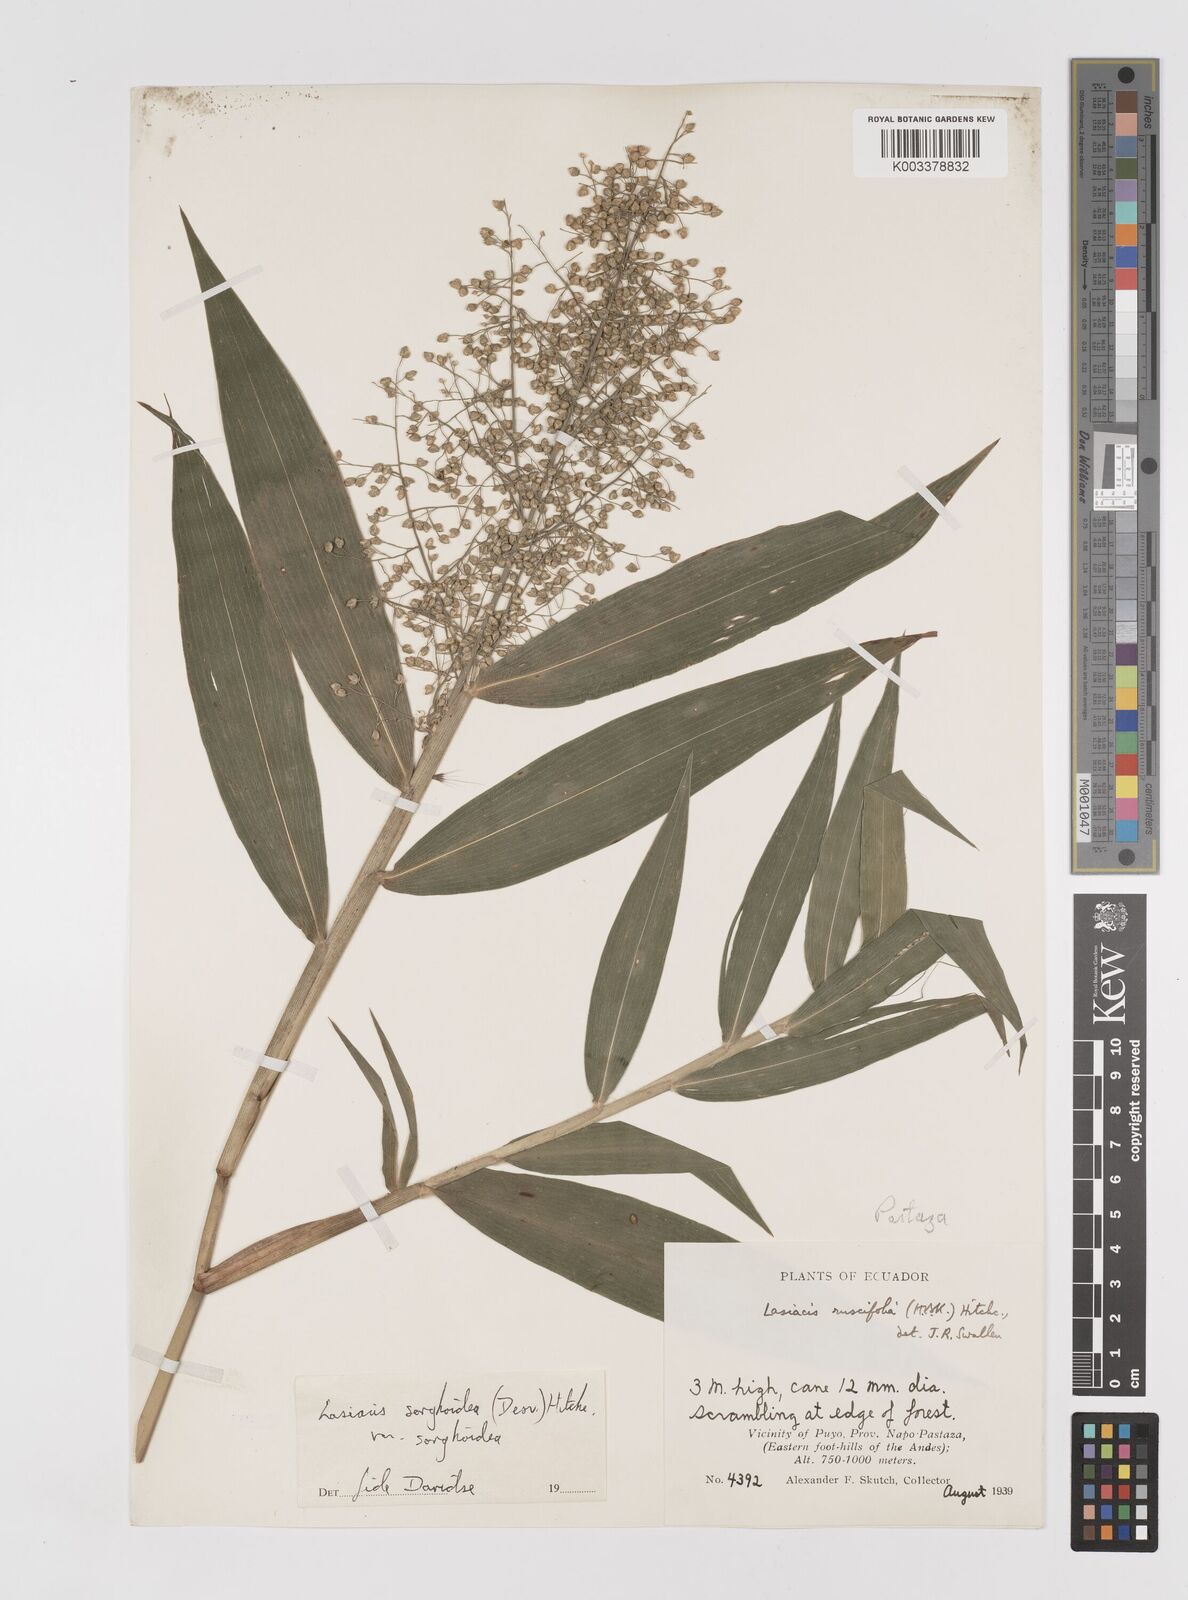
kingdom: Plantae
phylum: Tracheophyta
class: Liliopsida
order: Poales
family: Poaceae
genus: Lasiacis
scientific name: Lasiacis maculata
